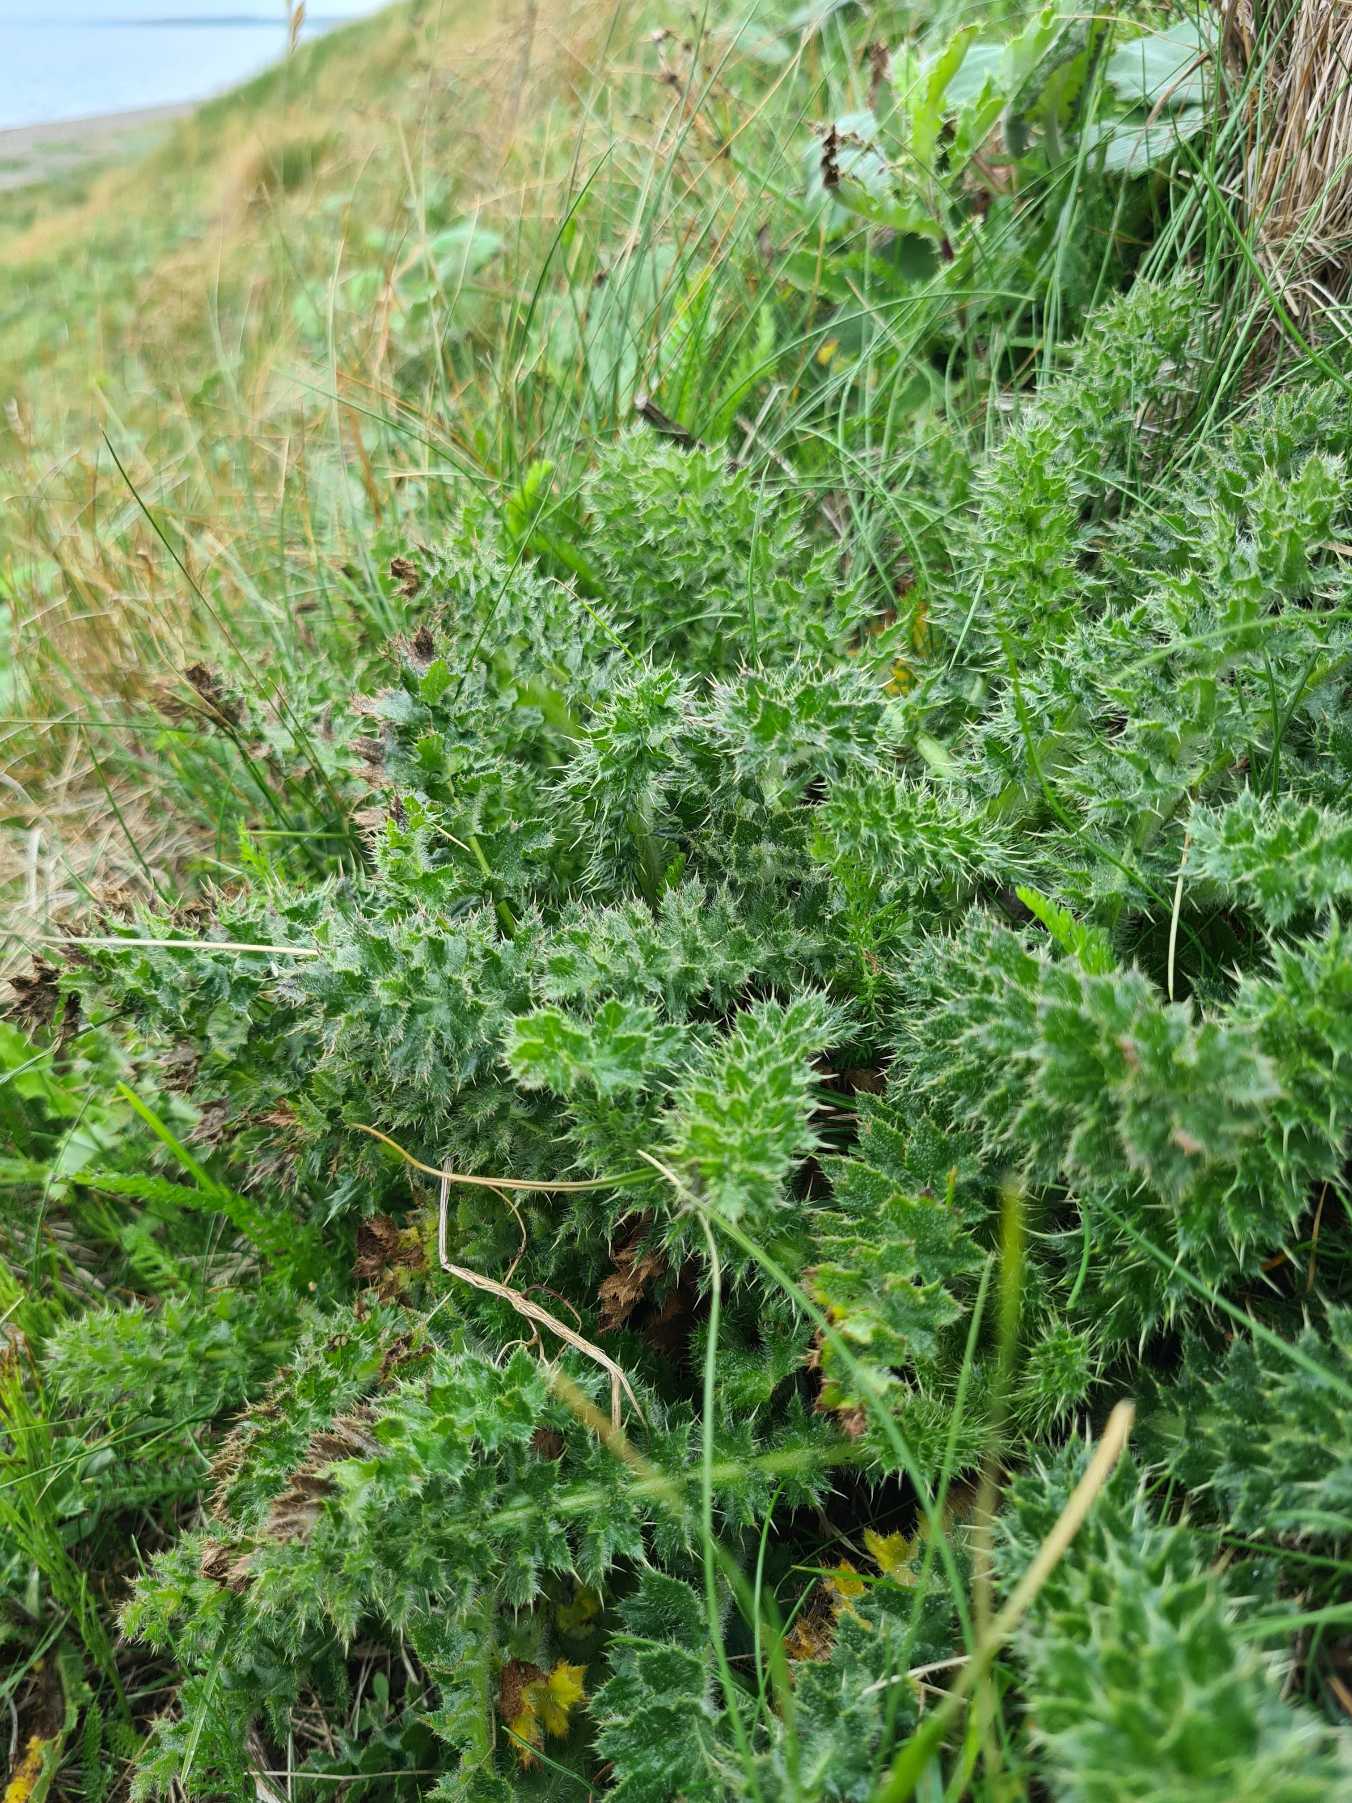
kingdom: Plantae
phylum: Tracheophyta
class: Magnoliopsida
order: Asterales
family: Asteraceae
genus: Cirsium
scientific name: Cirsium acaule
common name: Lav tidsel
